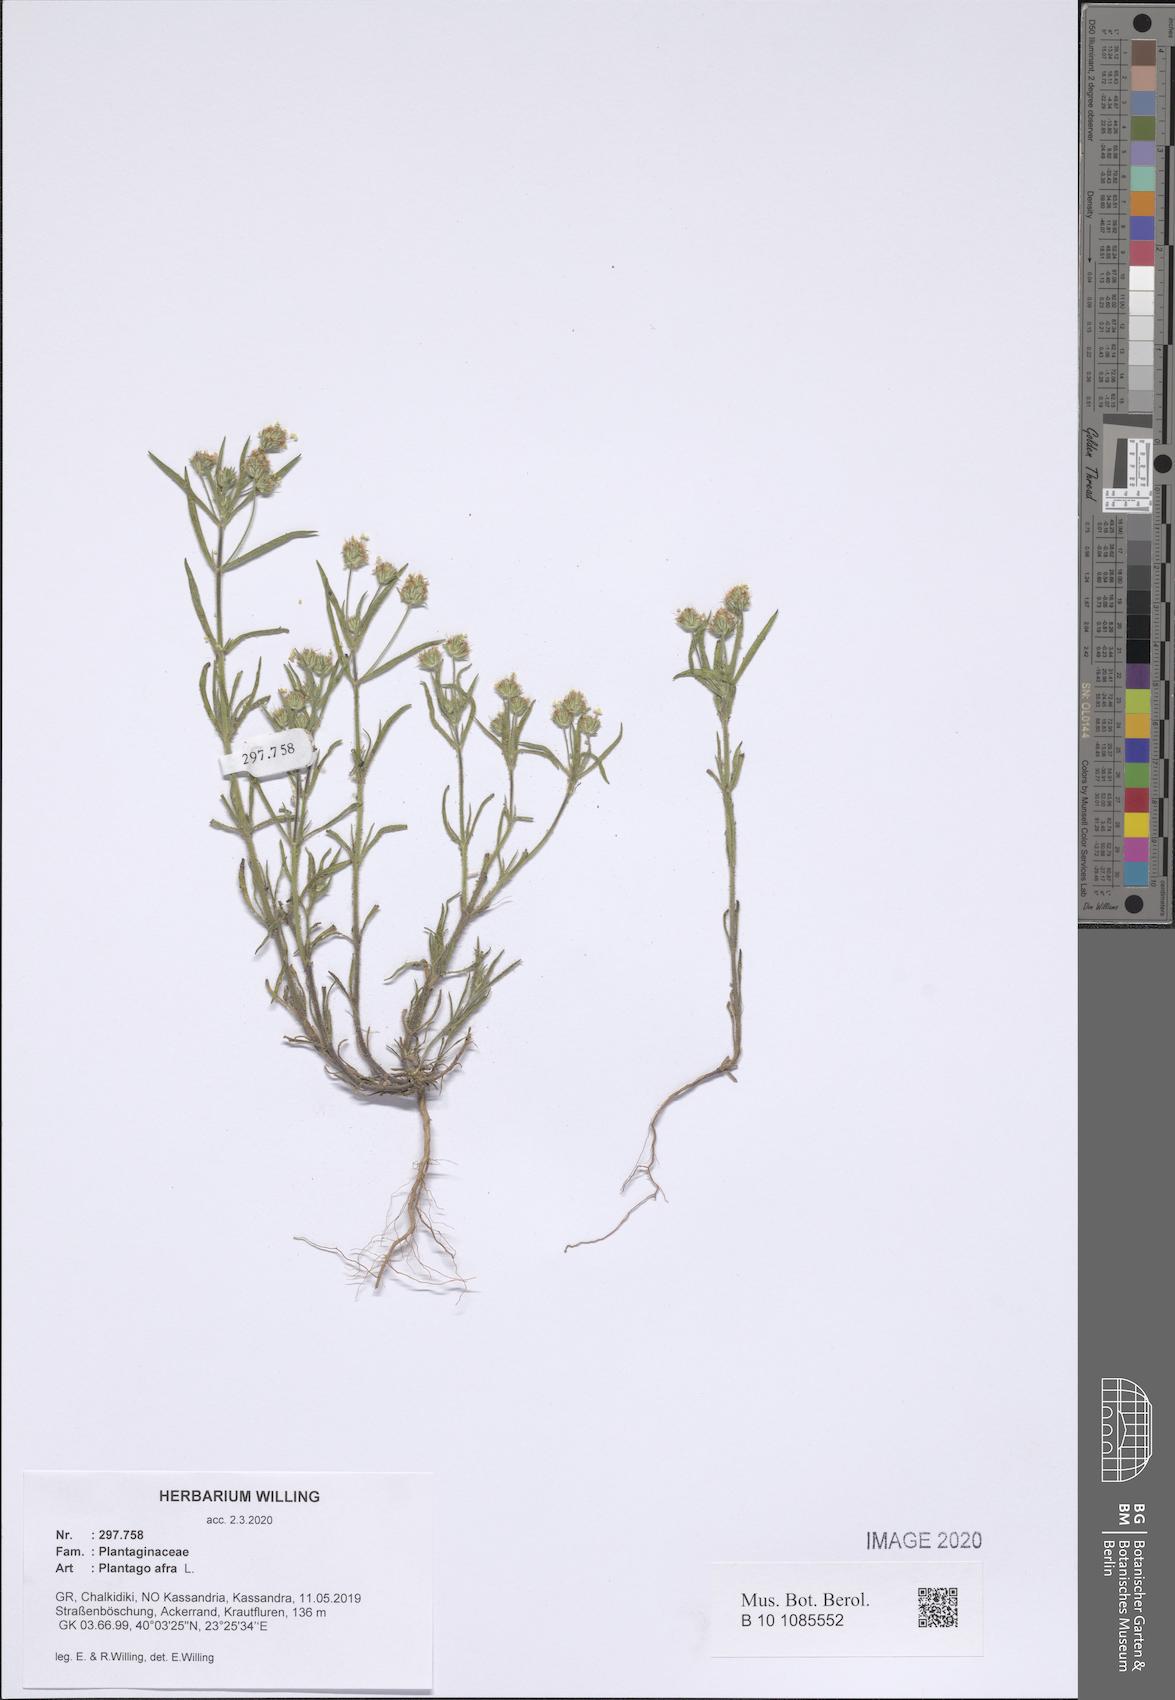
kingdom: Plantae
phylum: Tracheophyta
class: Magnoliopsida
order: Lamiales
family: Plantaginaceae
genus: Plantago
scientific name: Plantago afra
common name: Glandular plantain
